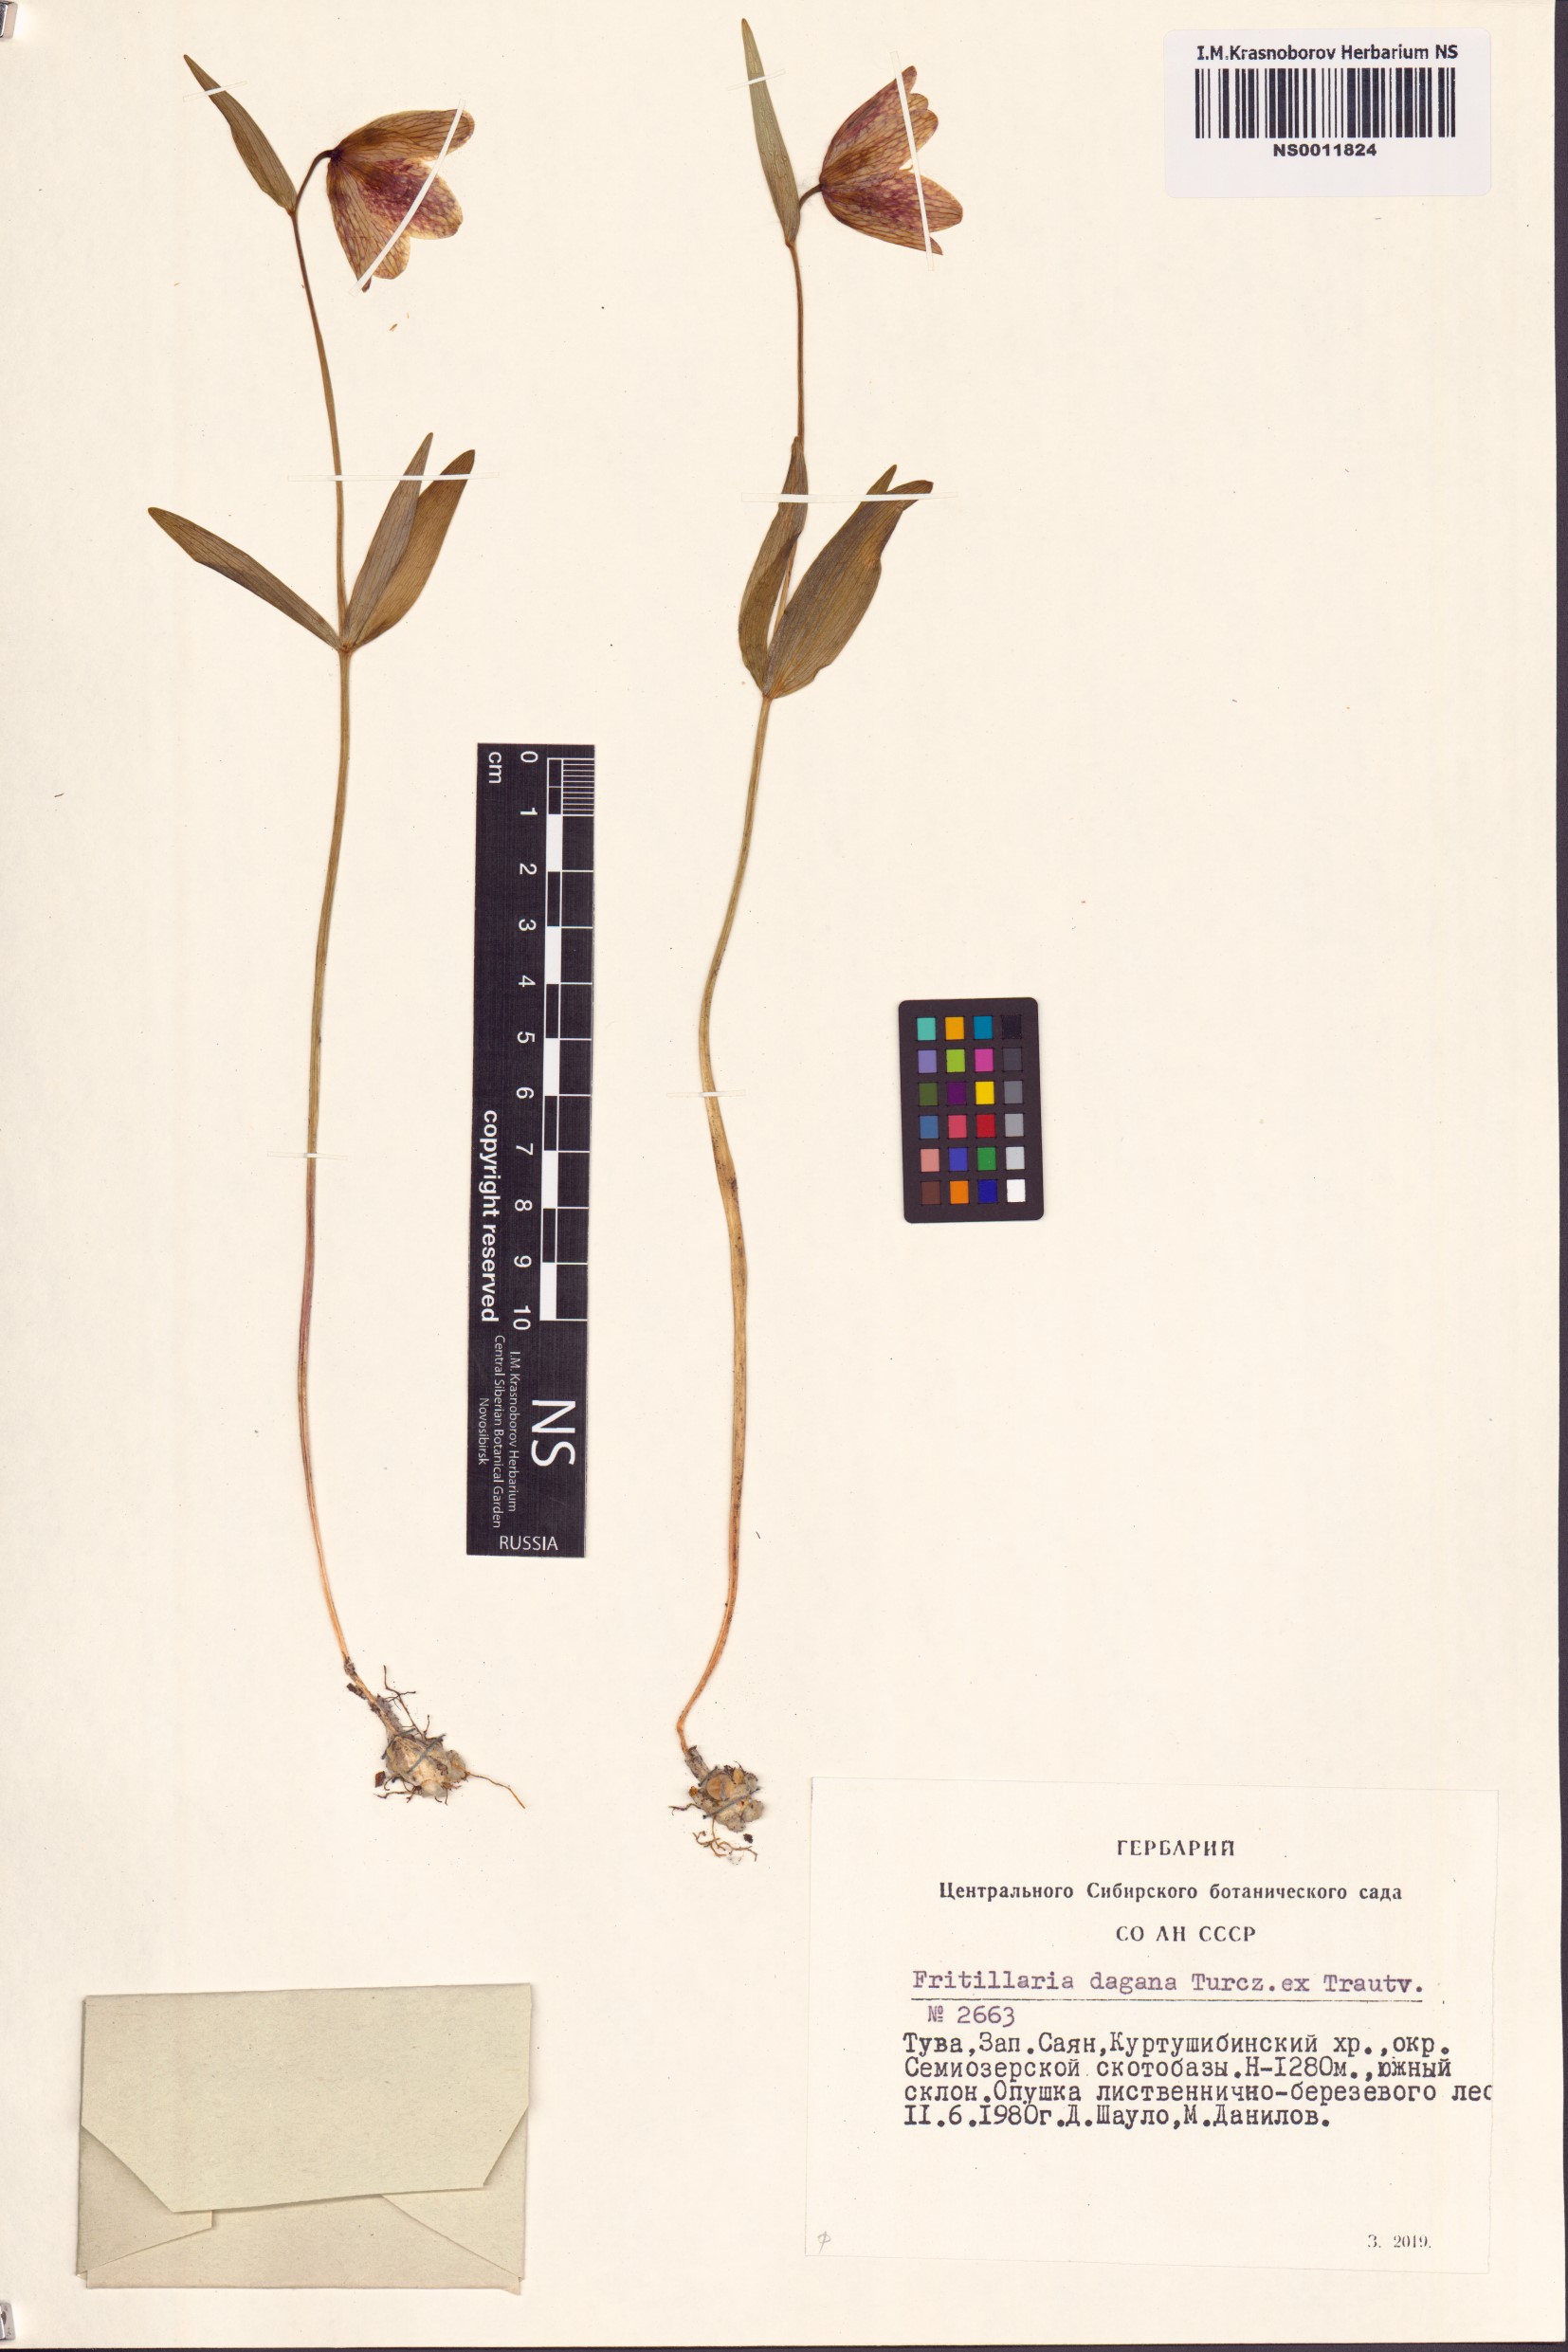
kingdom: Plantae
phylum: Tracheophyta
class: Liliopsida
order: Liliales
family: Liliaceae
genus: Fritillaria
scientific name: Fritillaria dagana
